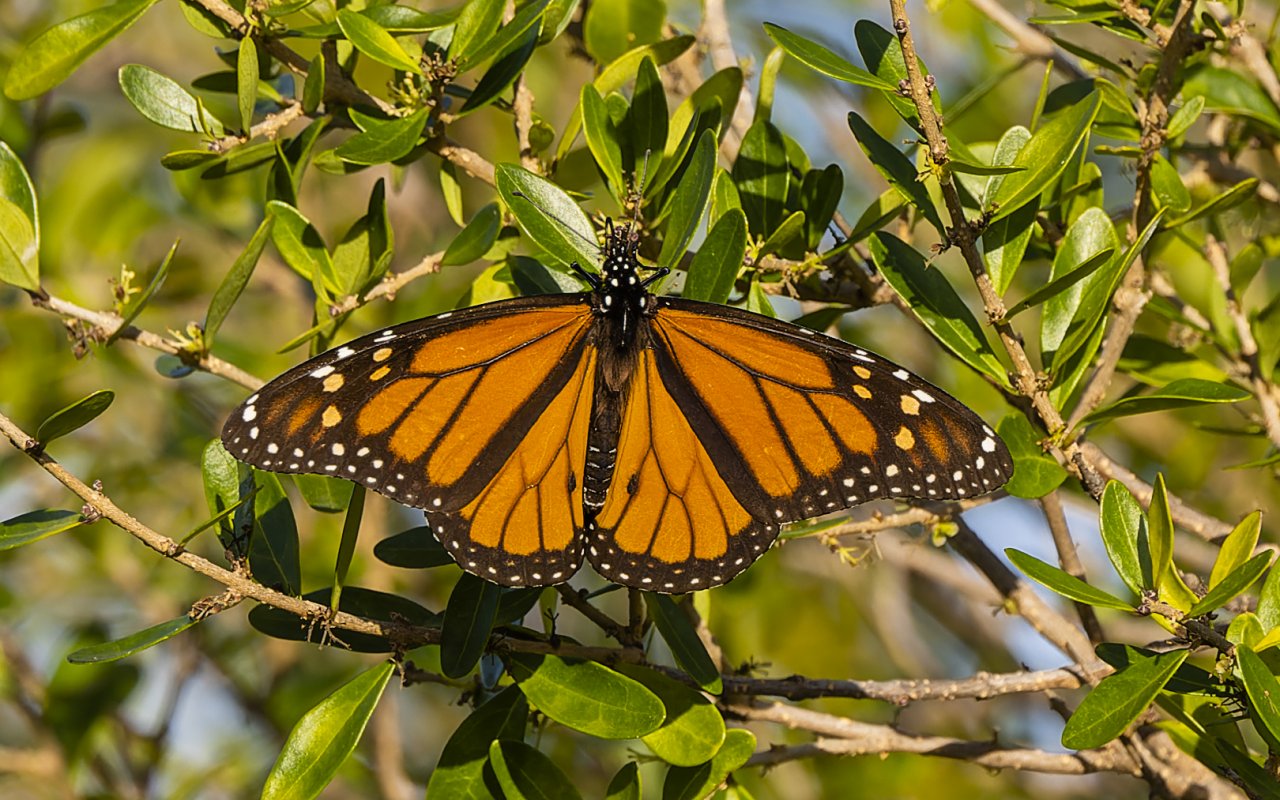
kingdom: Animalia
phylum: Arthropoda
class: Insecta
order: Lepidoptera
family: Nymphalidae
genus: Danaus
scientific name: Danaus plexippus
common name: Monarch
